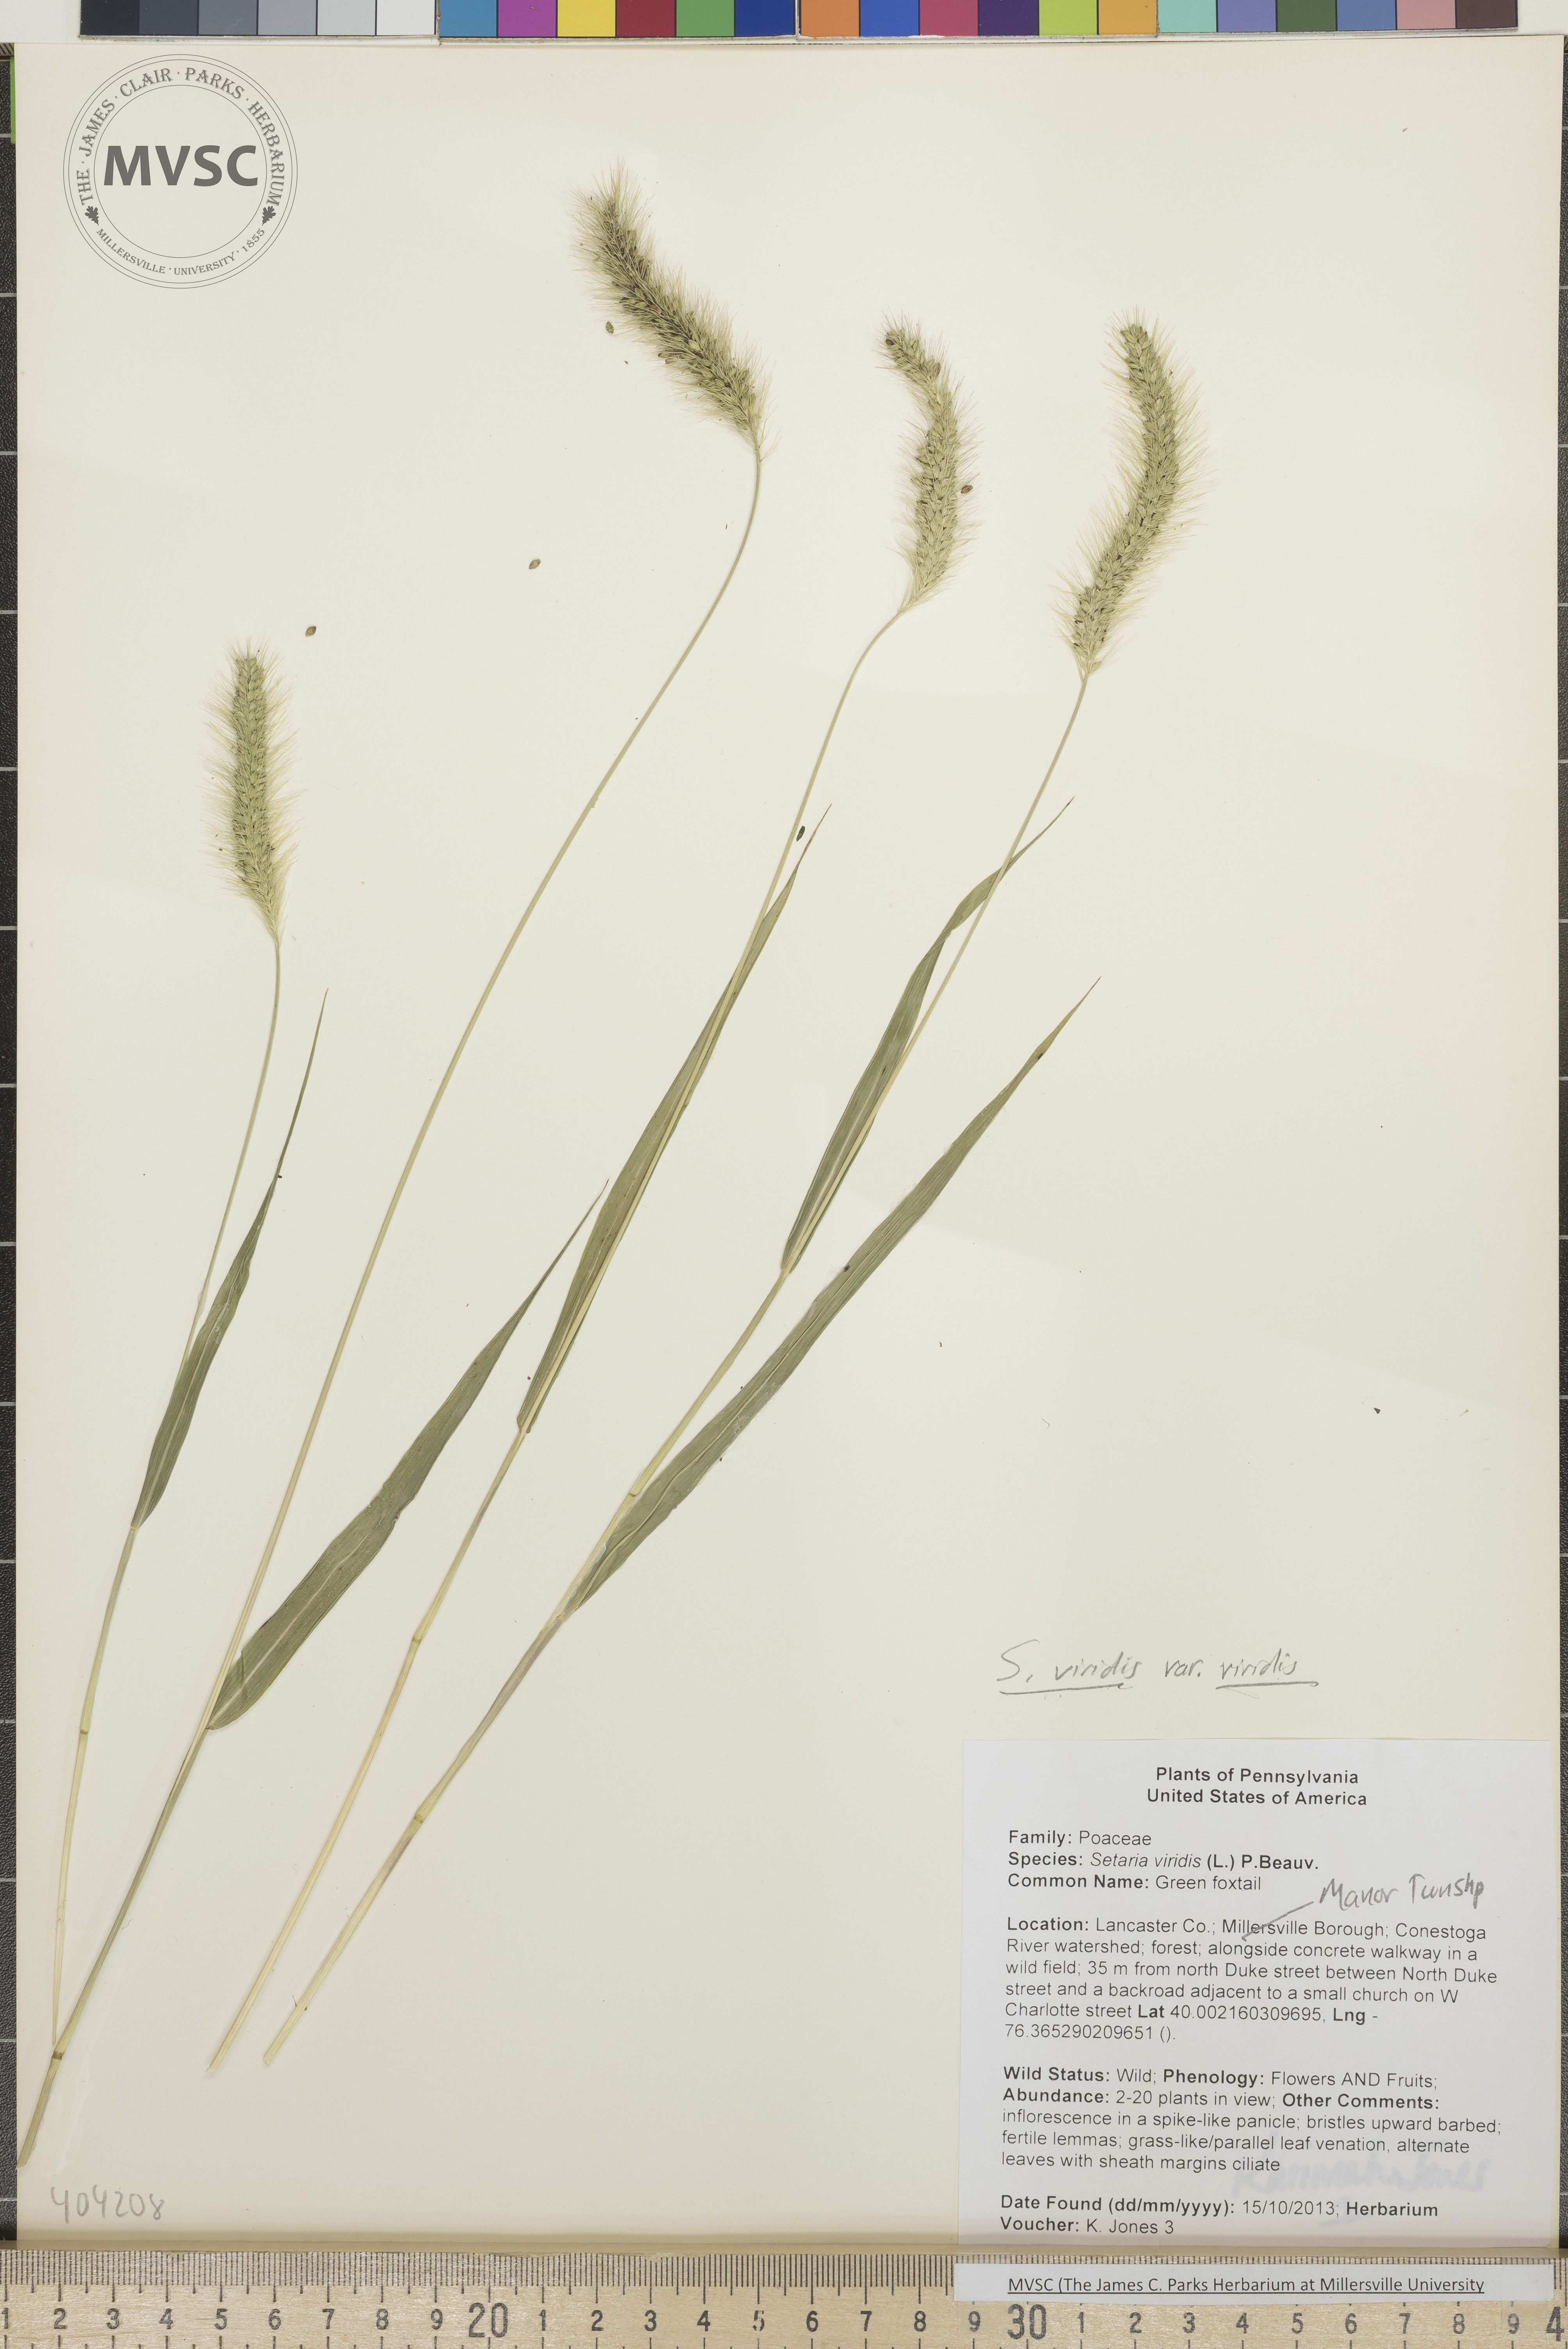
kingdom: Plantae
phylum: Tracheophyta
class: Liliopsida
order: Poales
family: Poaceae
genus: Setaria
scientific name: Setaria viridis
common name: Green foxtail
